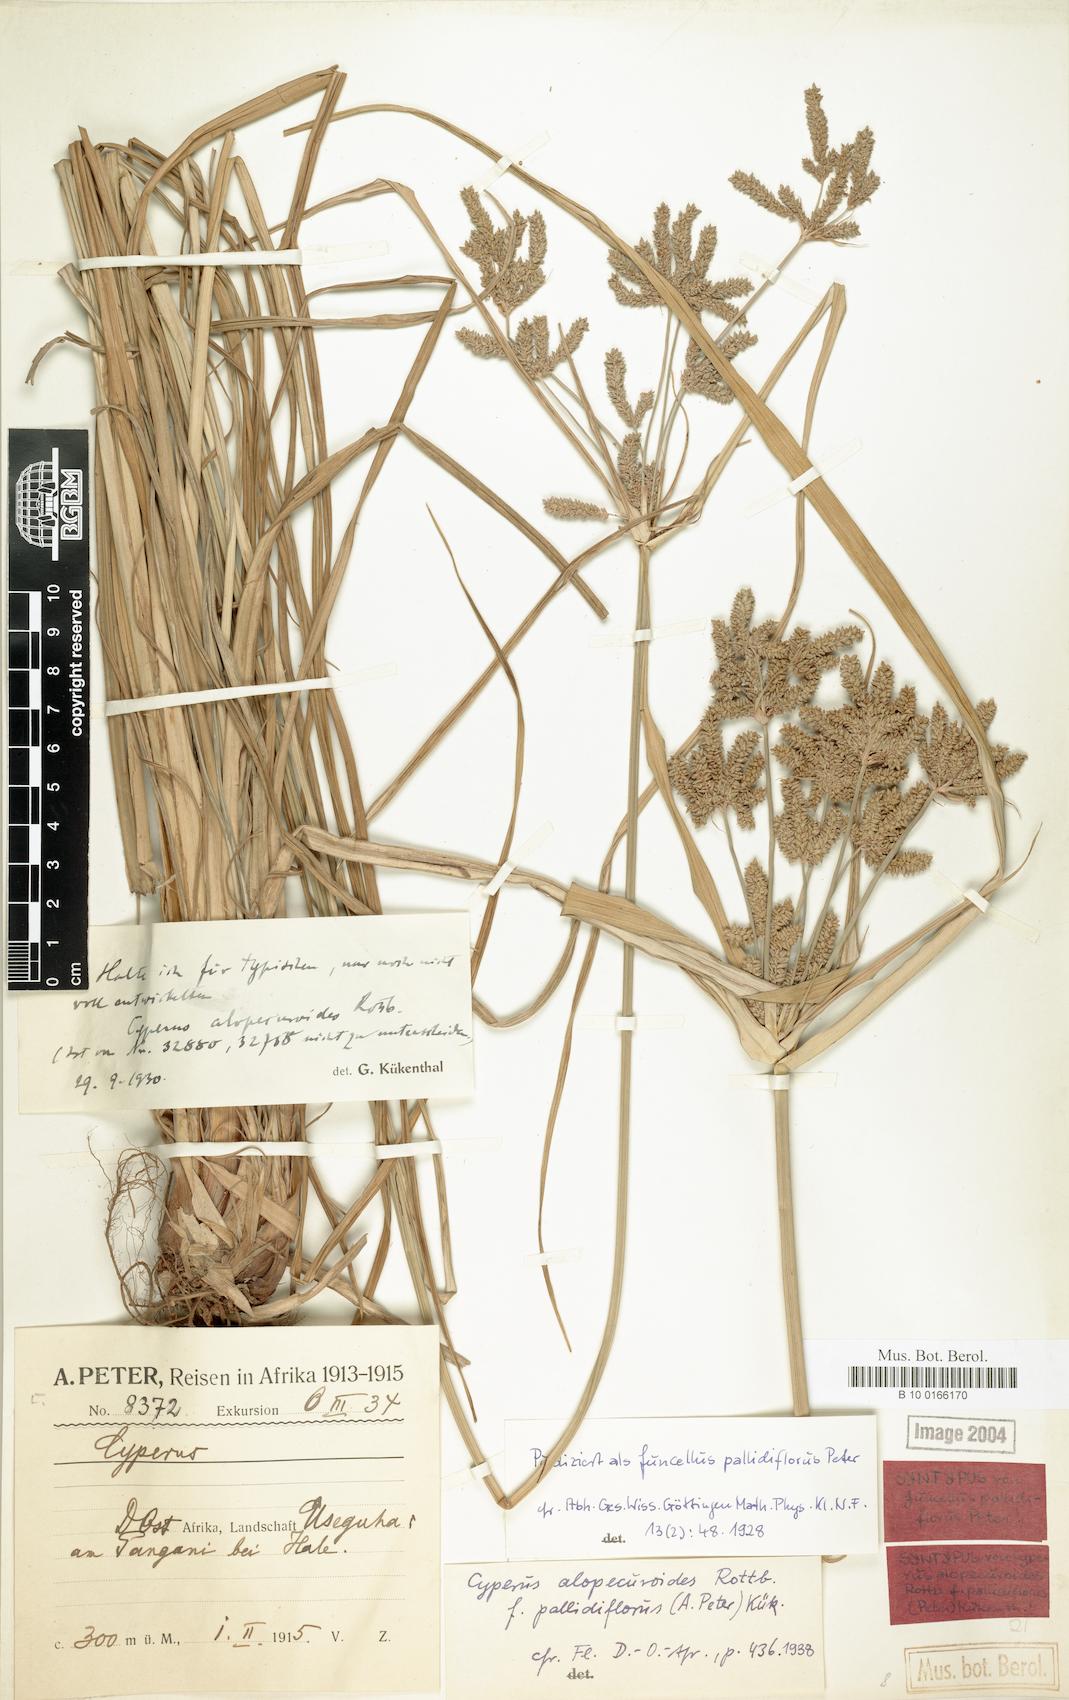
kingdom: Plantae
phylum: Tracheophyta
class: Liliopsida
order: Poales
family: Cyperaceae
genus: Cyperus
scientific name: Cyperus alopecuroides
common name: Foxtail flatsedge
